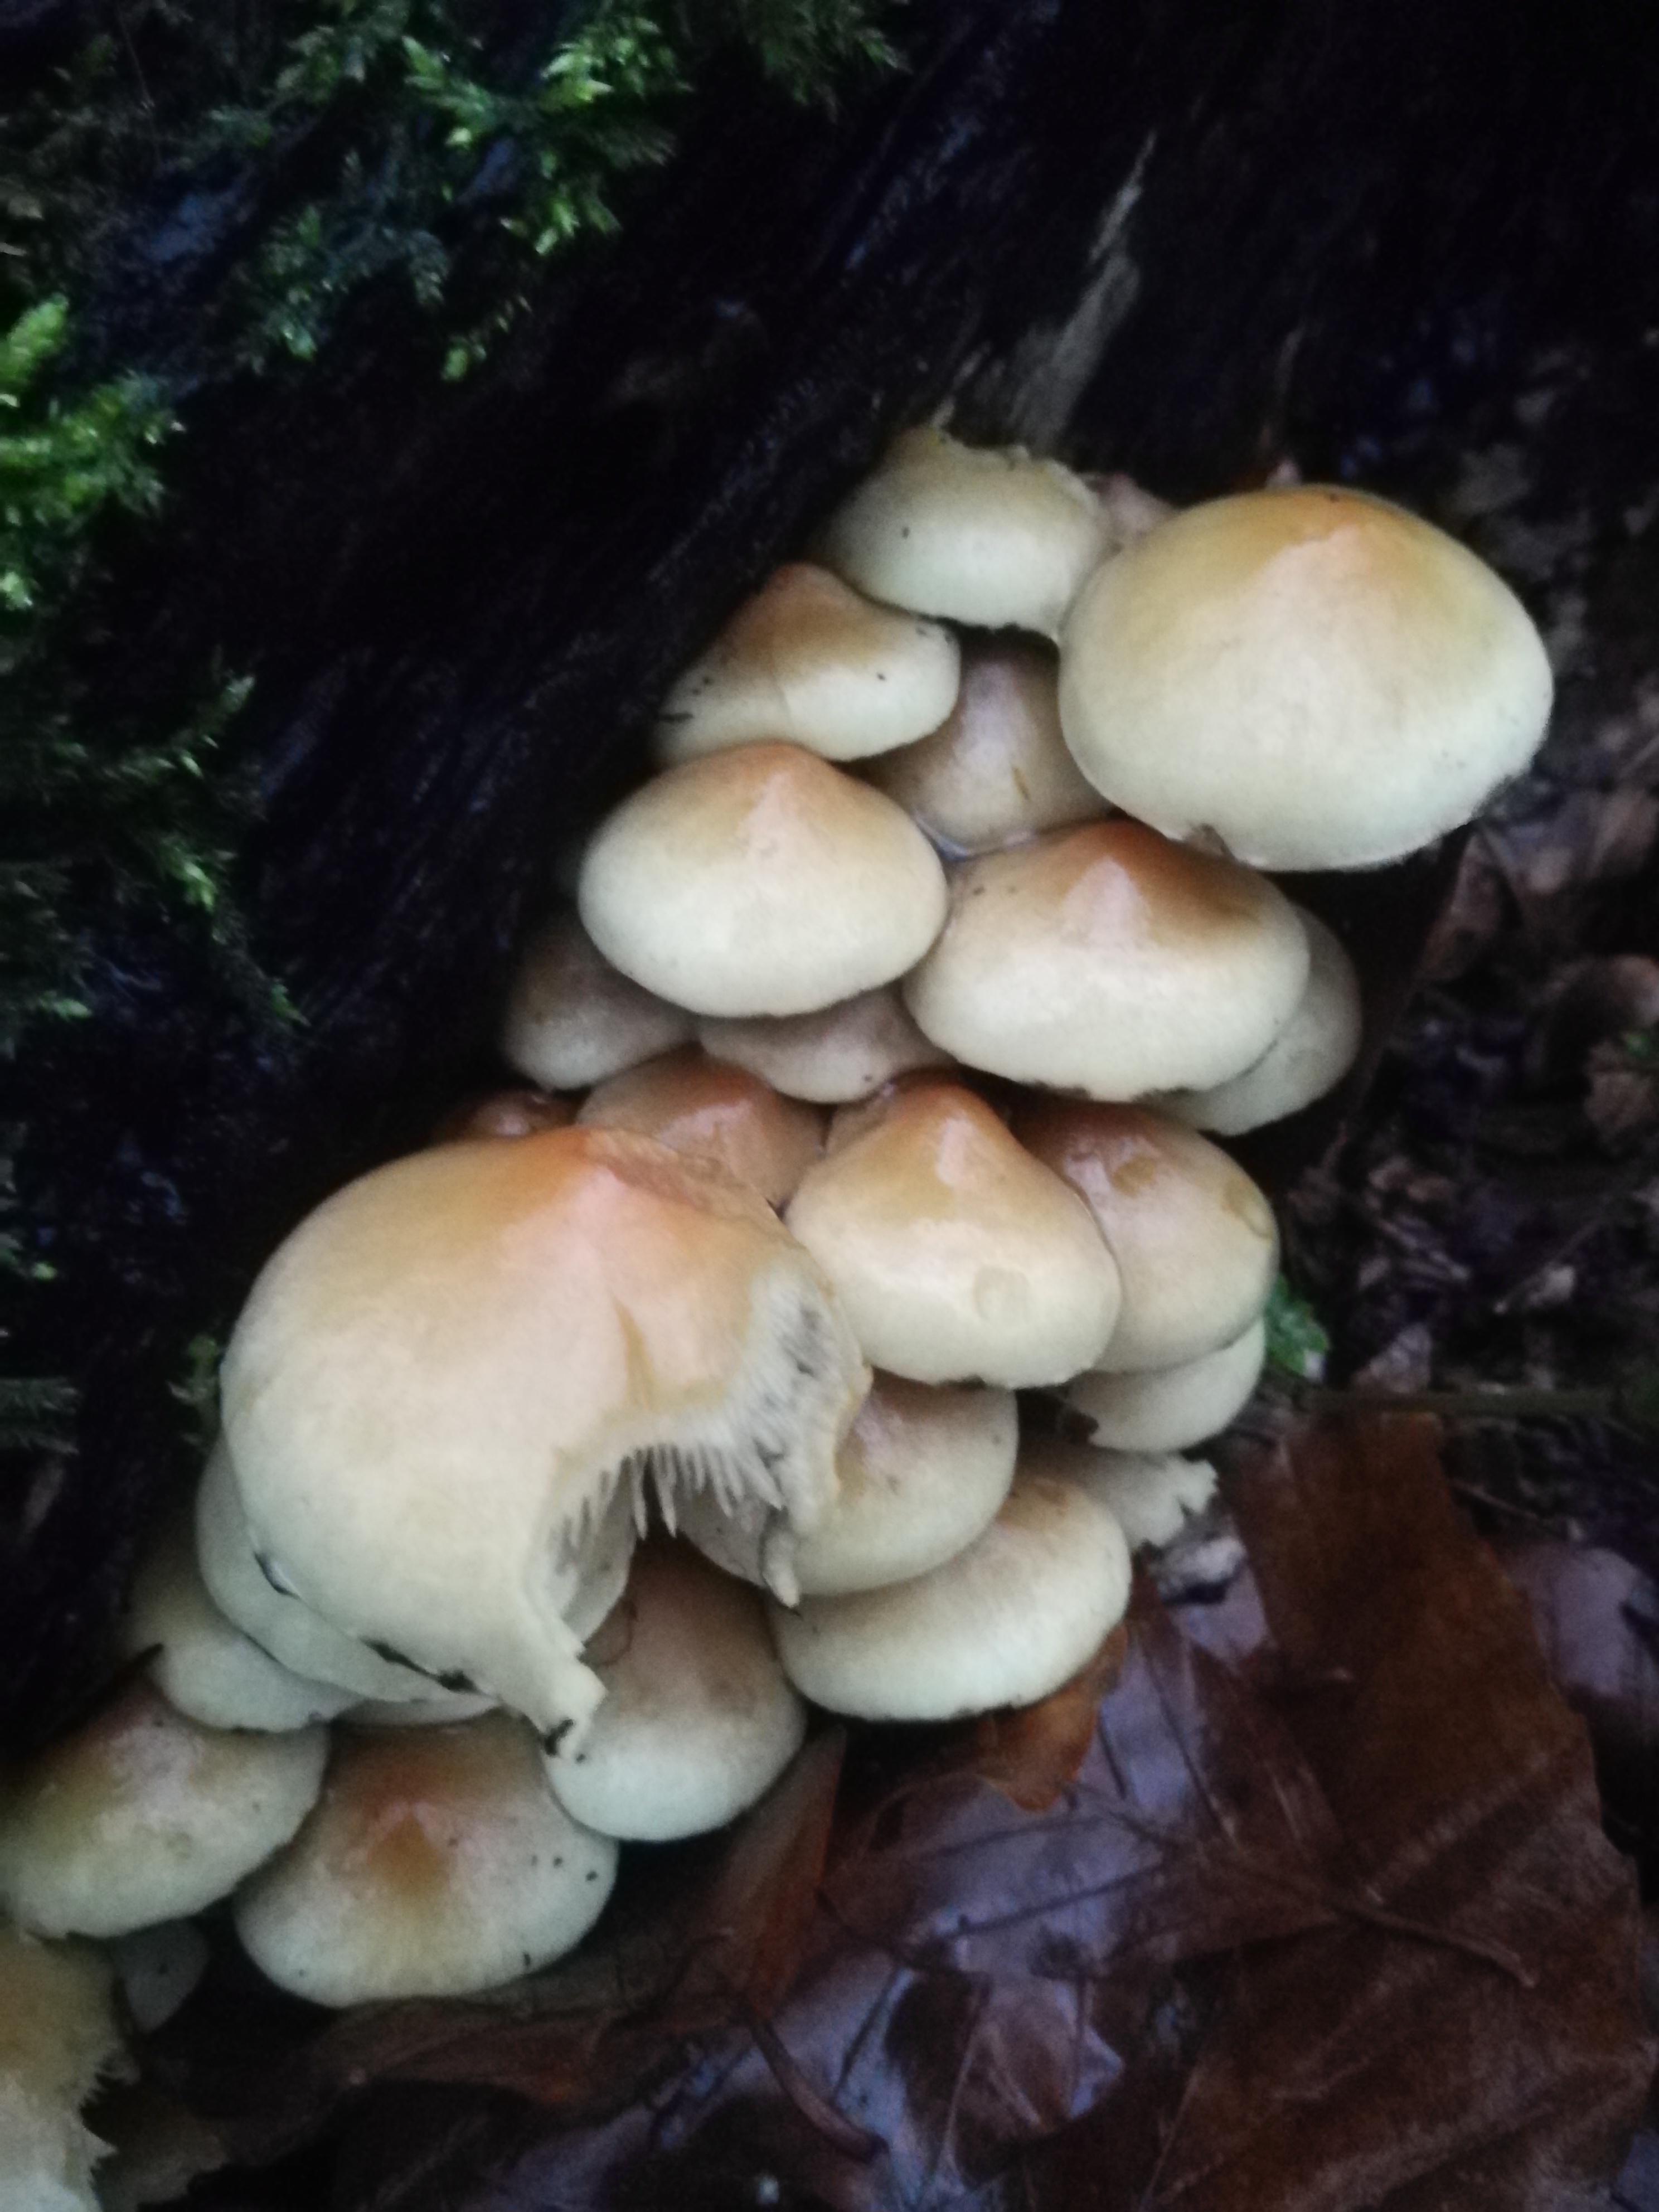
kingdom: Fungi
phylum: Basidiomycota
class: Agaricomycetes
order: Agaricales
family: Strophariaceae
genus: Hypholoma
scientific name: Hypholoma fasciculare
